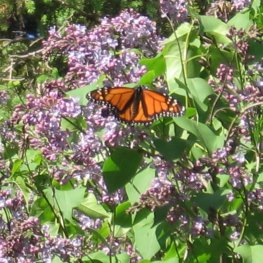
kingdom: Animalia
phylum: Arthropoda
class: Insecta
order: Lepidoptera
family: Nymphalidae
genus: Danaus
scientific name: Danaus plexippus
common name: Monarch
